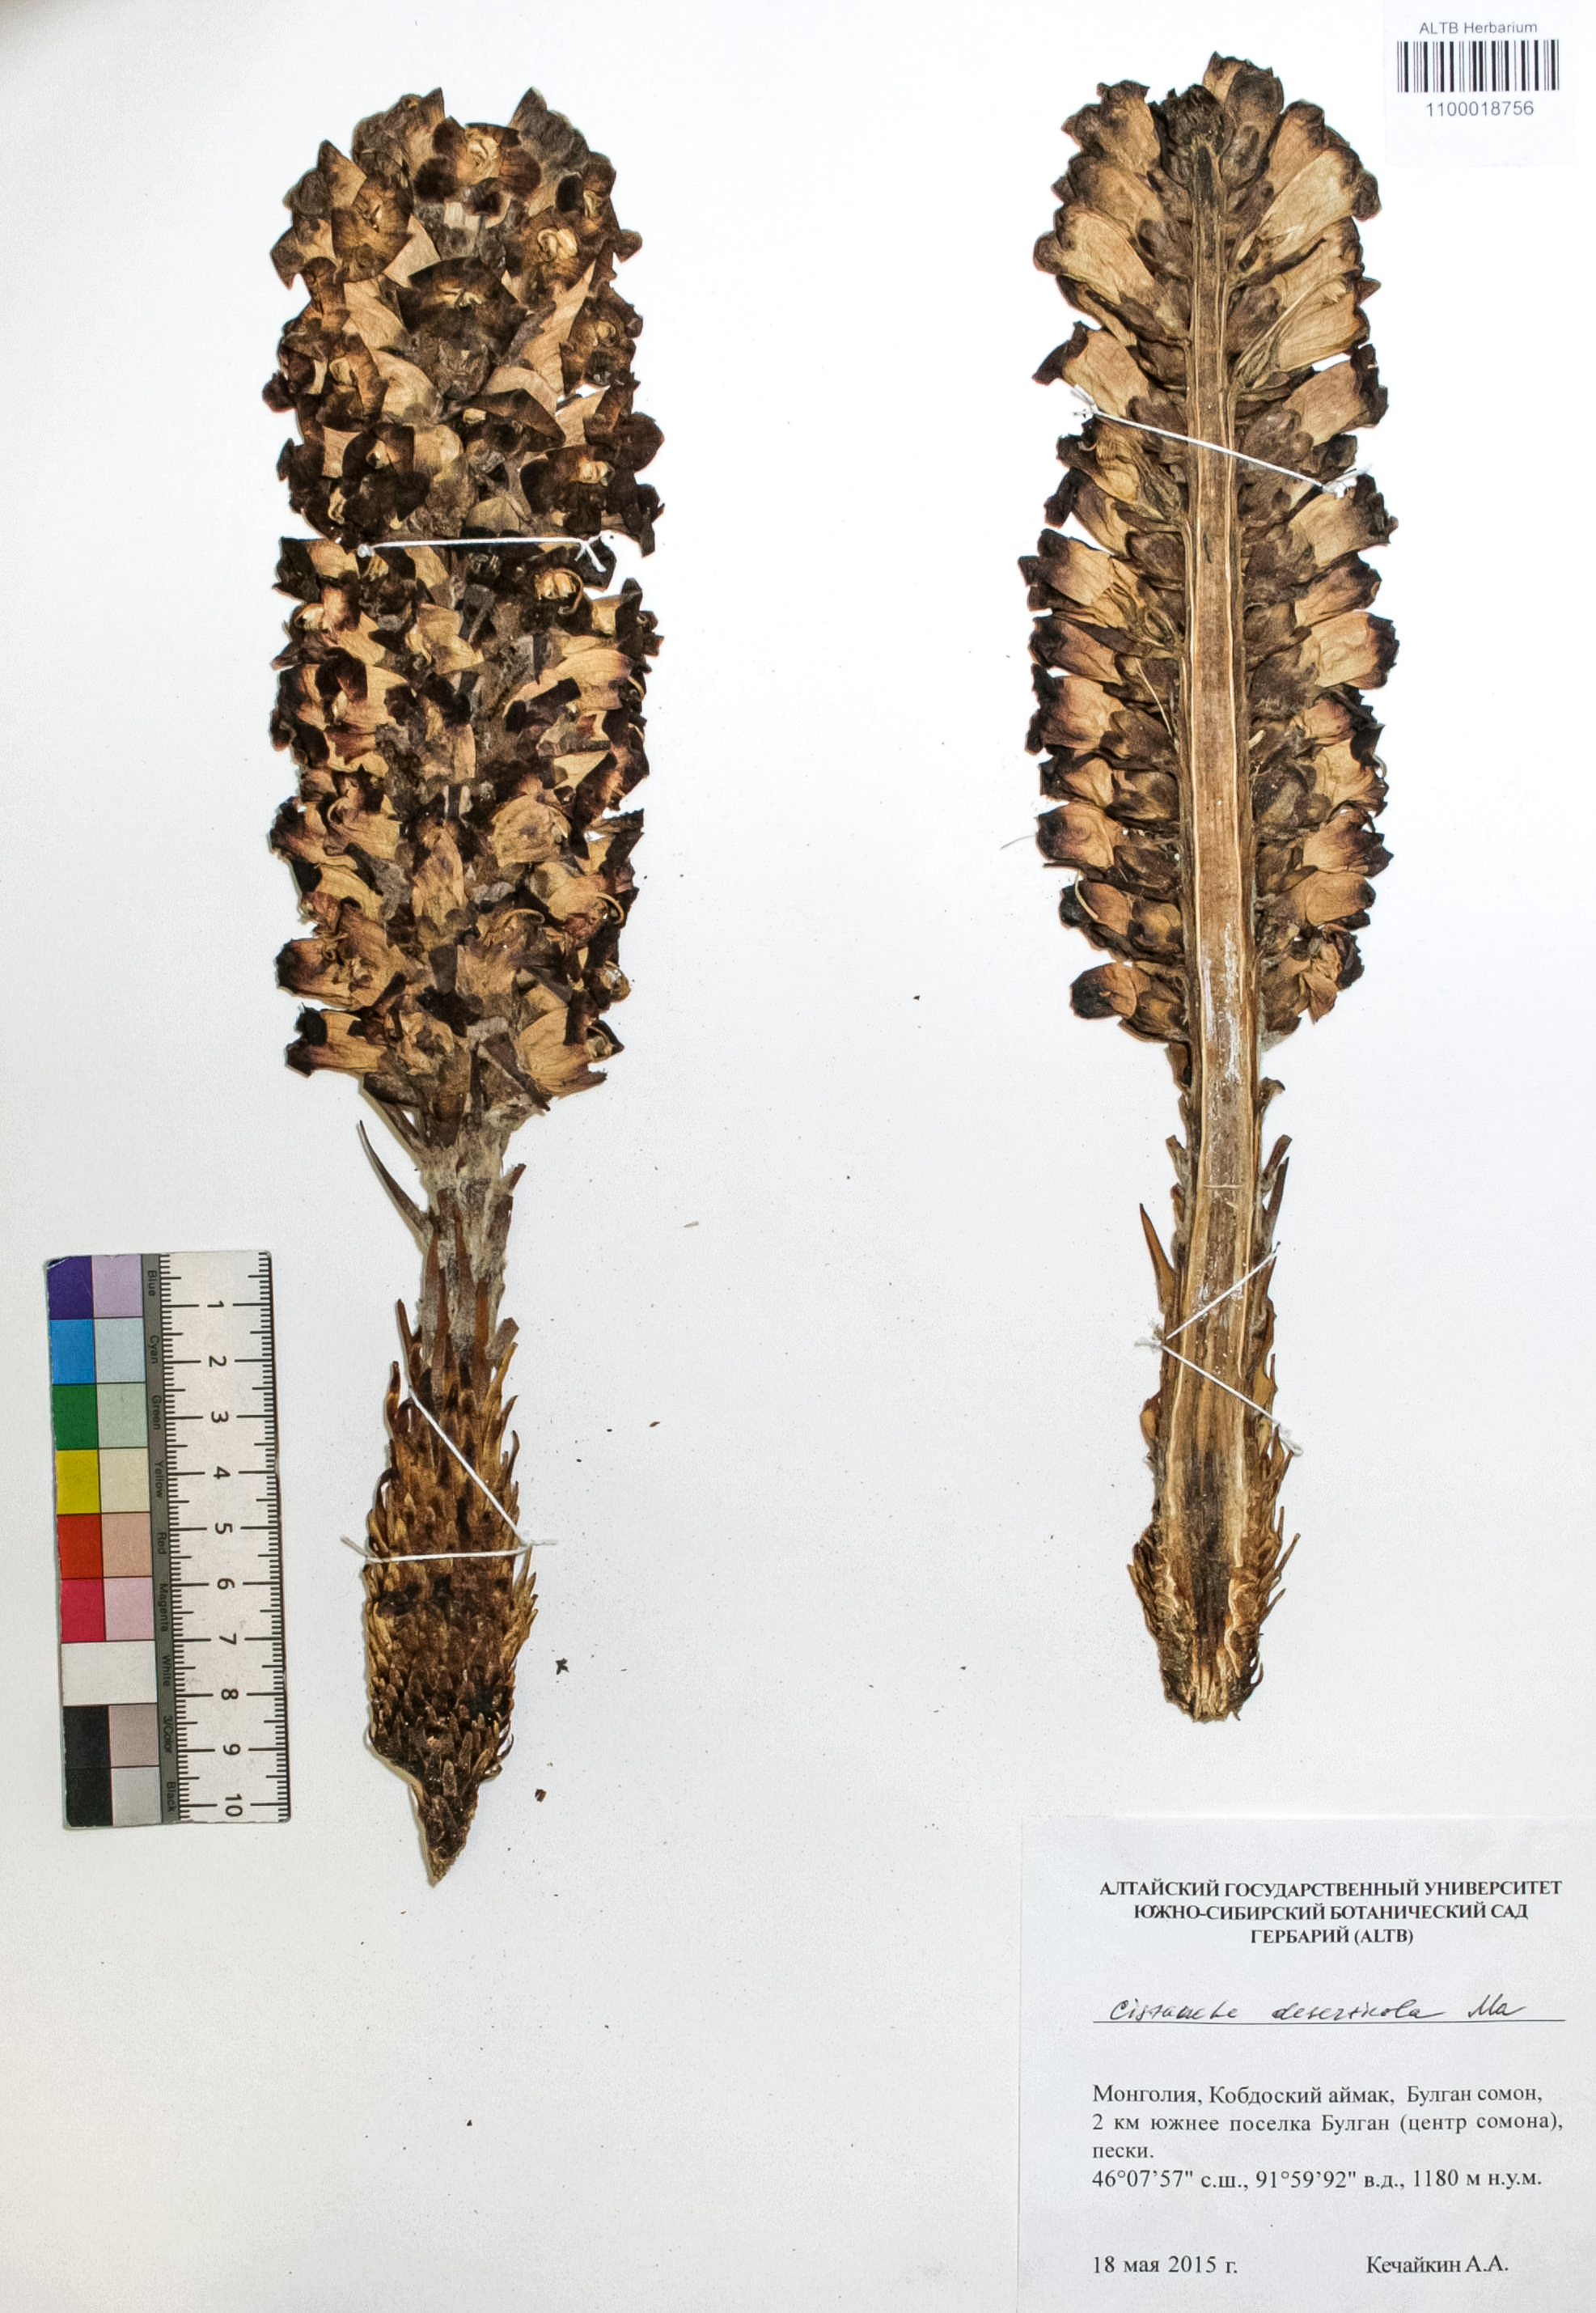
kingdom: Plantae
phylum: Tracheophyta
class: Magnoliopsida
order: Lamiales
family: Orobanchaceae
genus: Cistanche
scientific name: Cistanche deserticola
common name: Desert-broomrape
